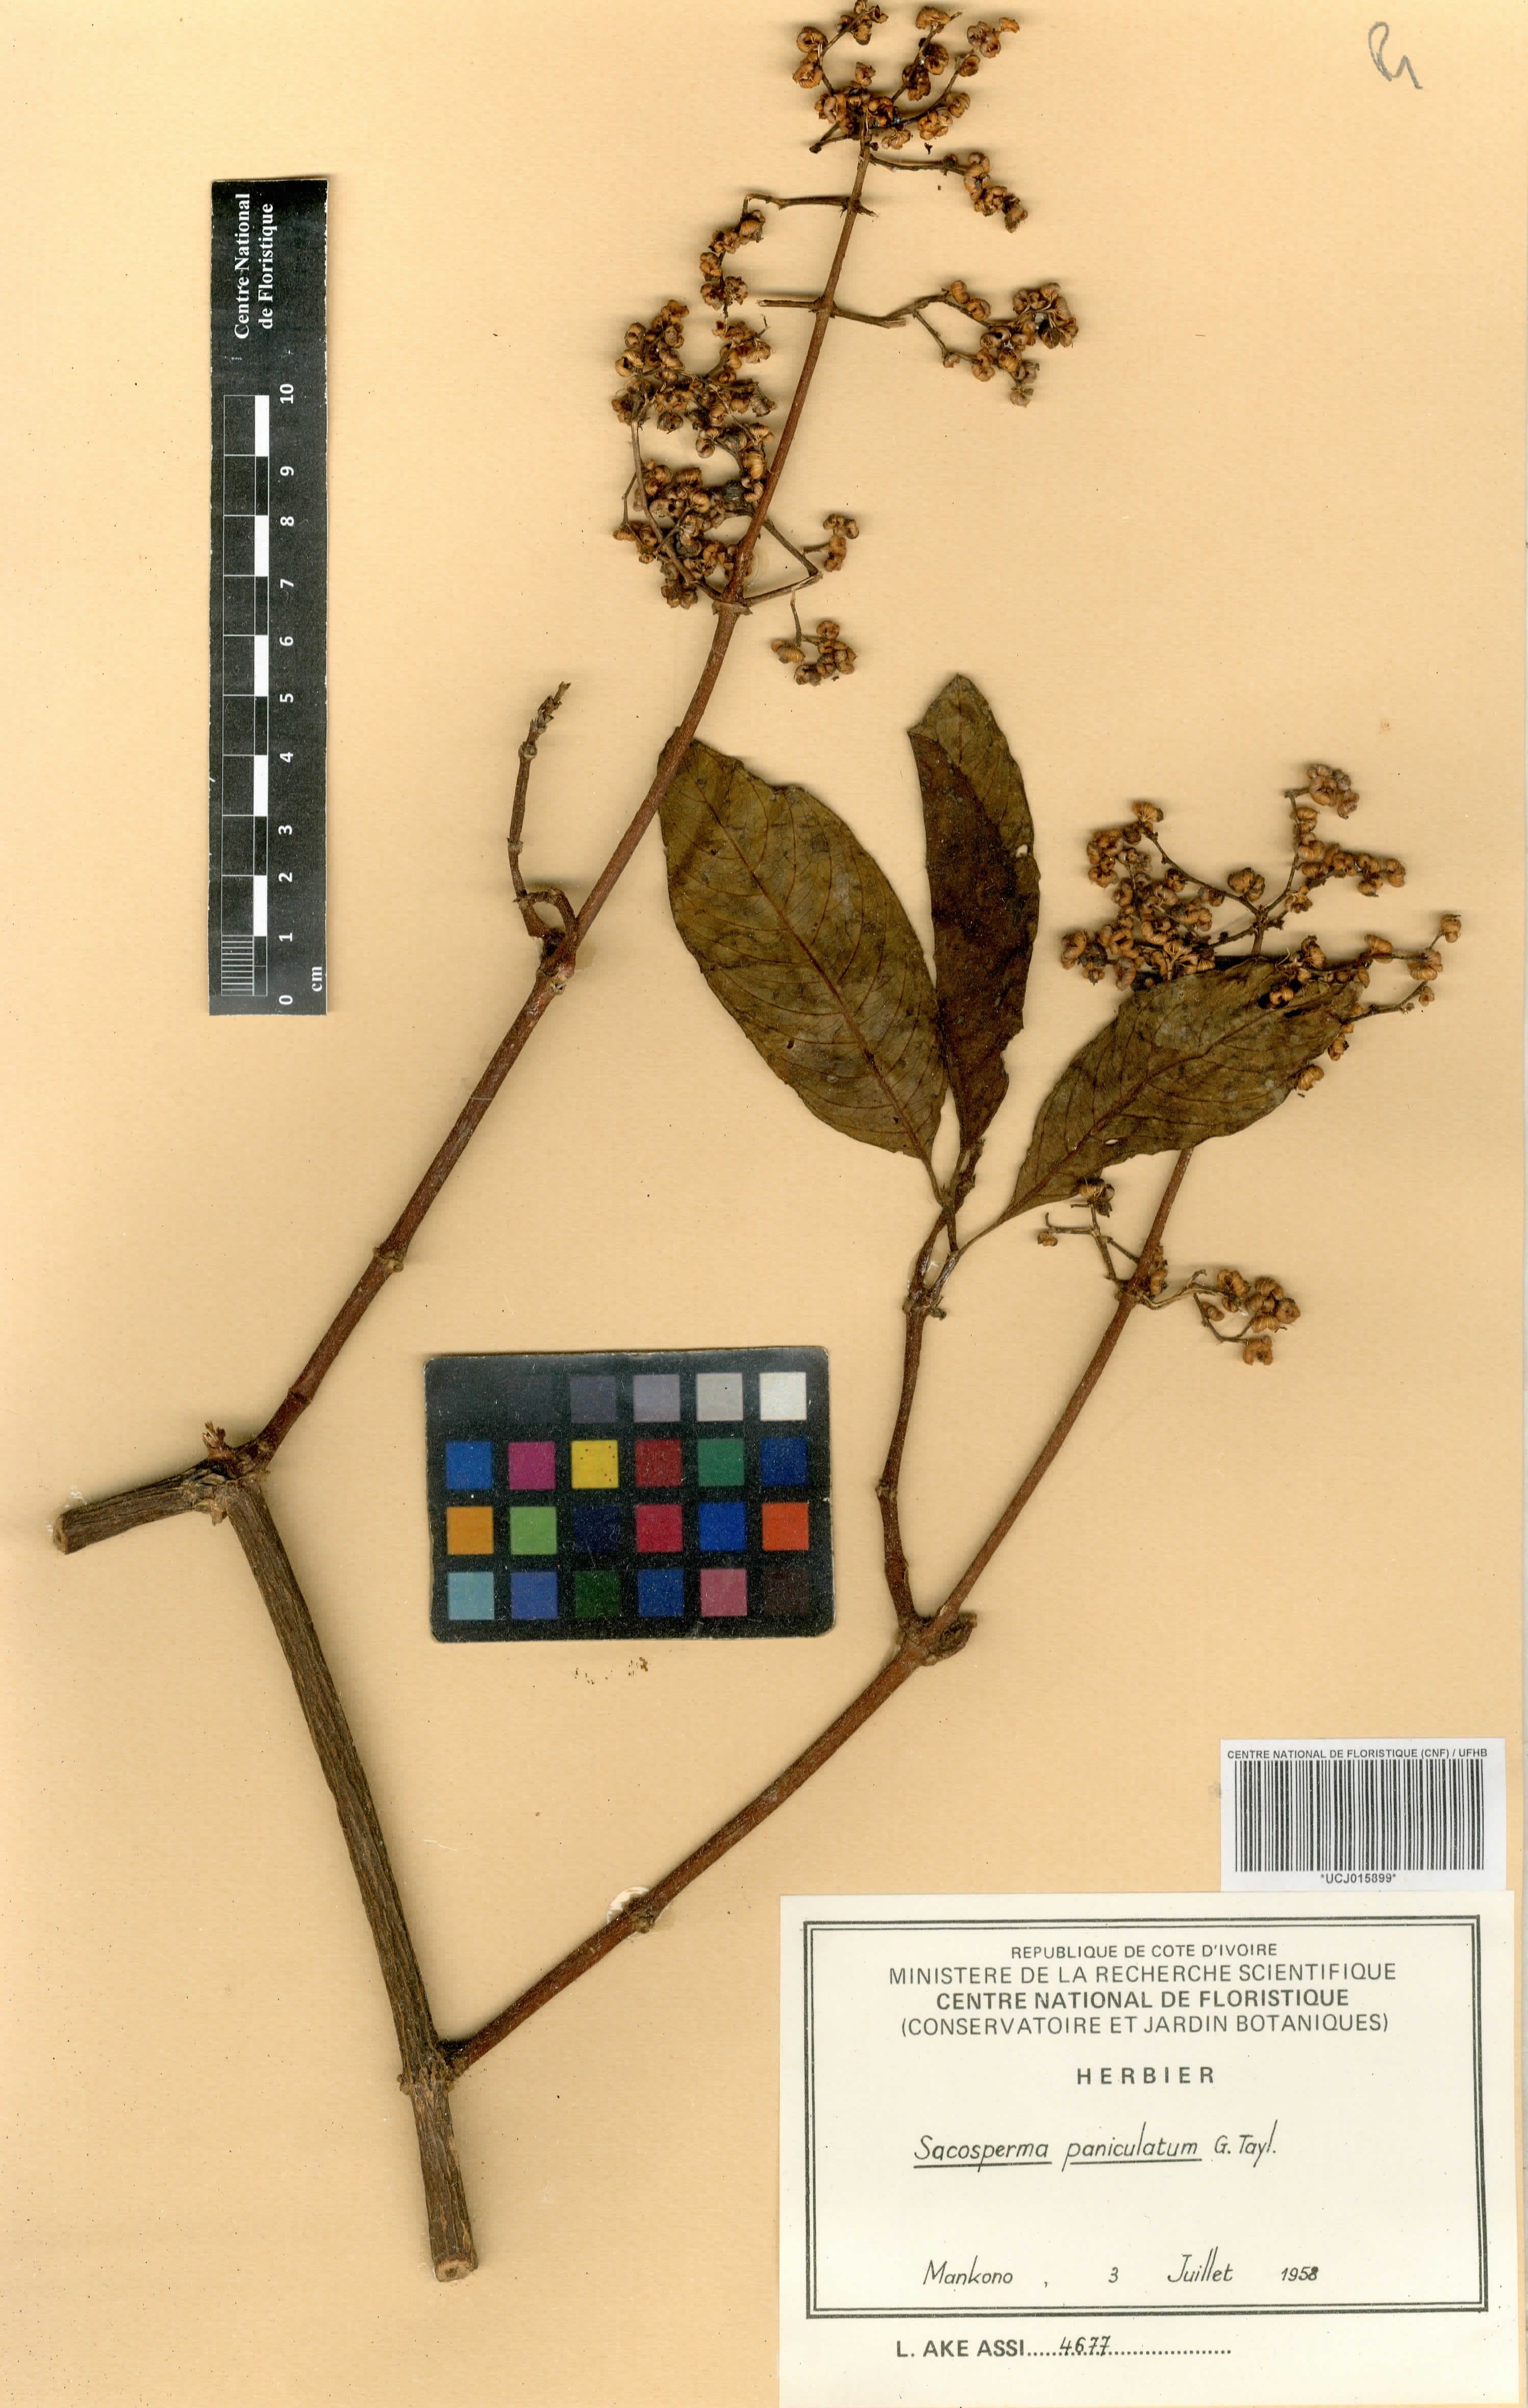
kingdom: Plantae
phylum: Tracheophyta
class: Magnoliopsida
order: Gentianales
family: Rubiaceae
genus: Sacosperma
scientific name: Sacosperma paniculatum
